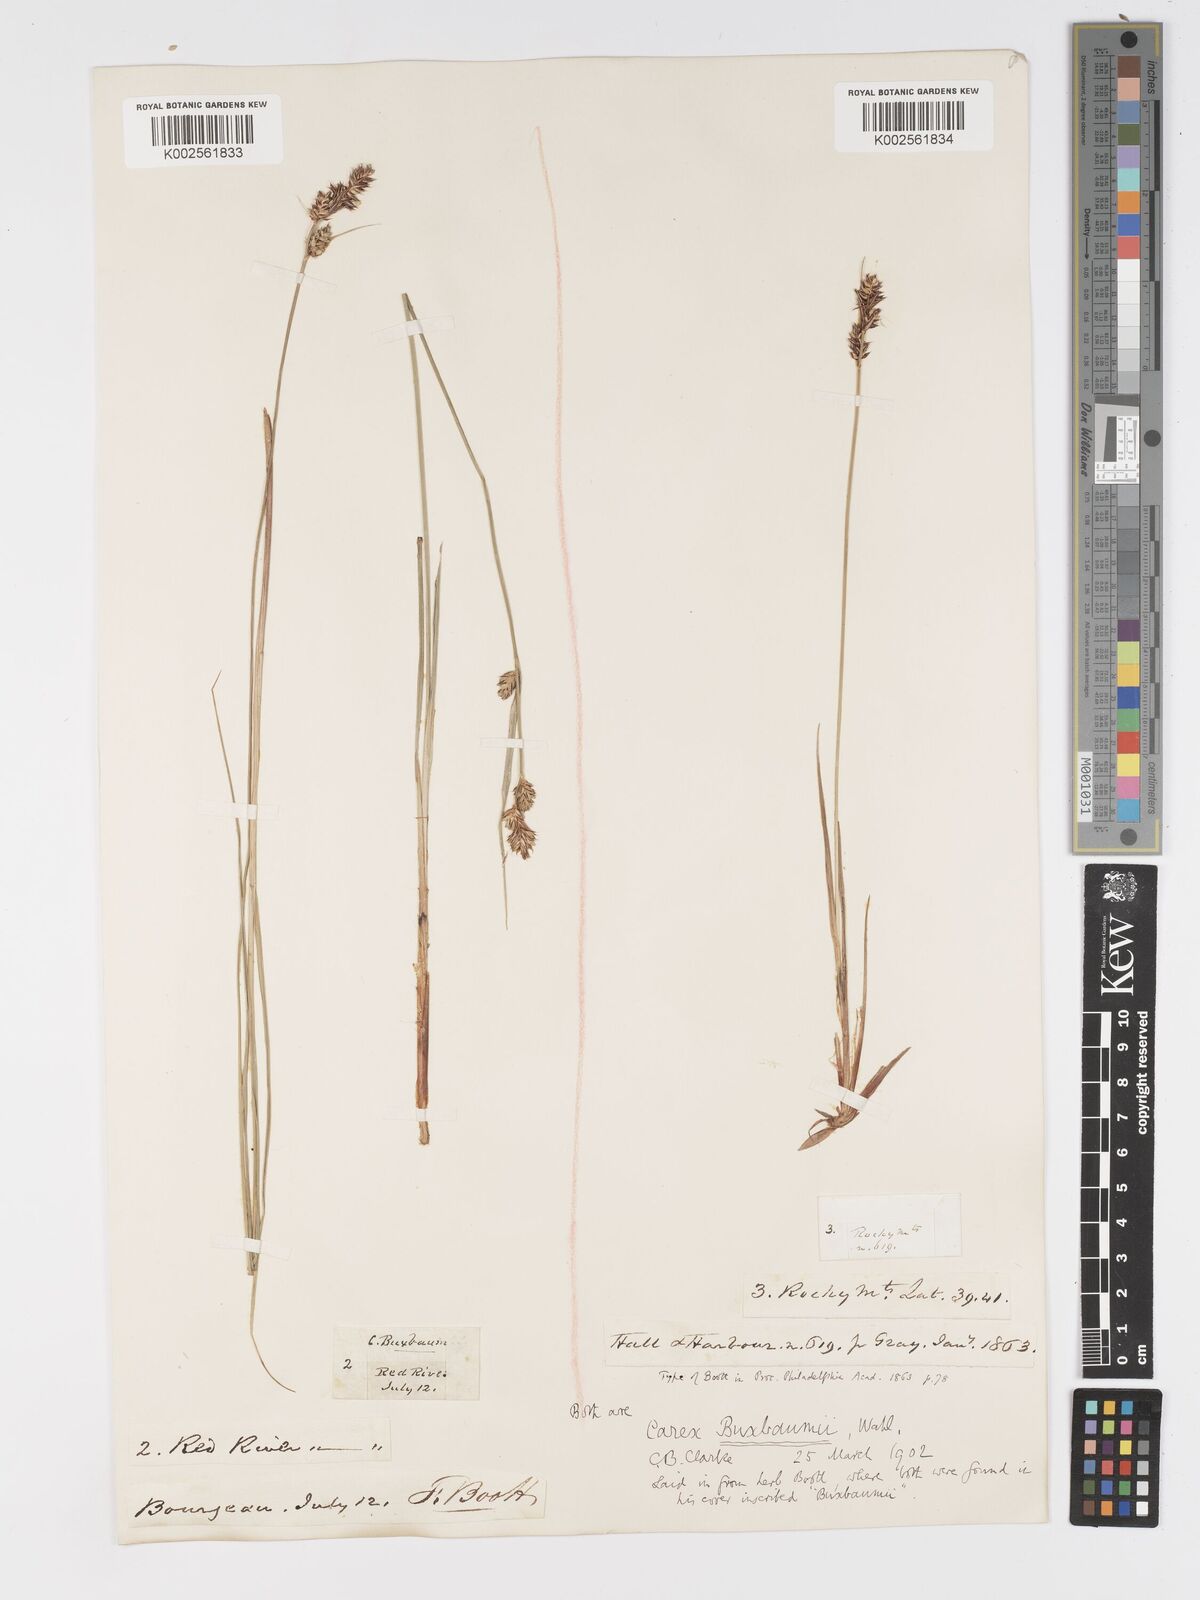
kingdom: Plantae
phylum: Tracheophyta
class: Liliopsida
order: Poales
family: Cyperaceae
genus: Carex
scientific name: Carex buxbaumii
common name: Club sedge
